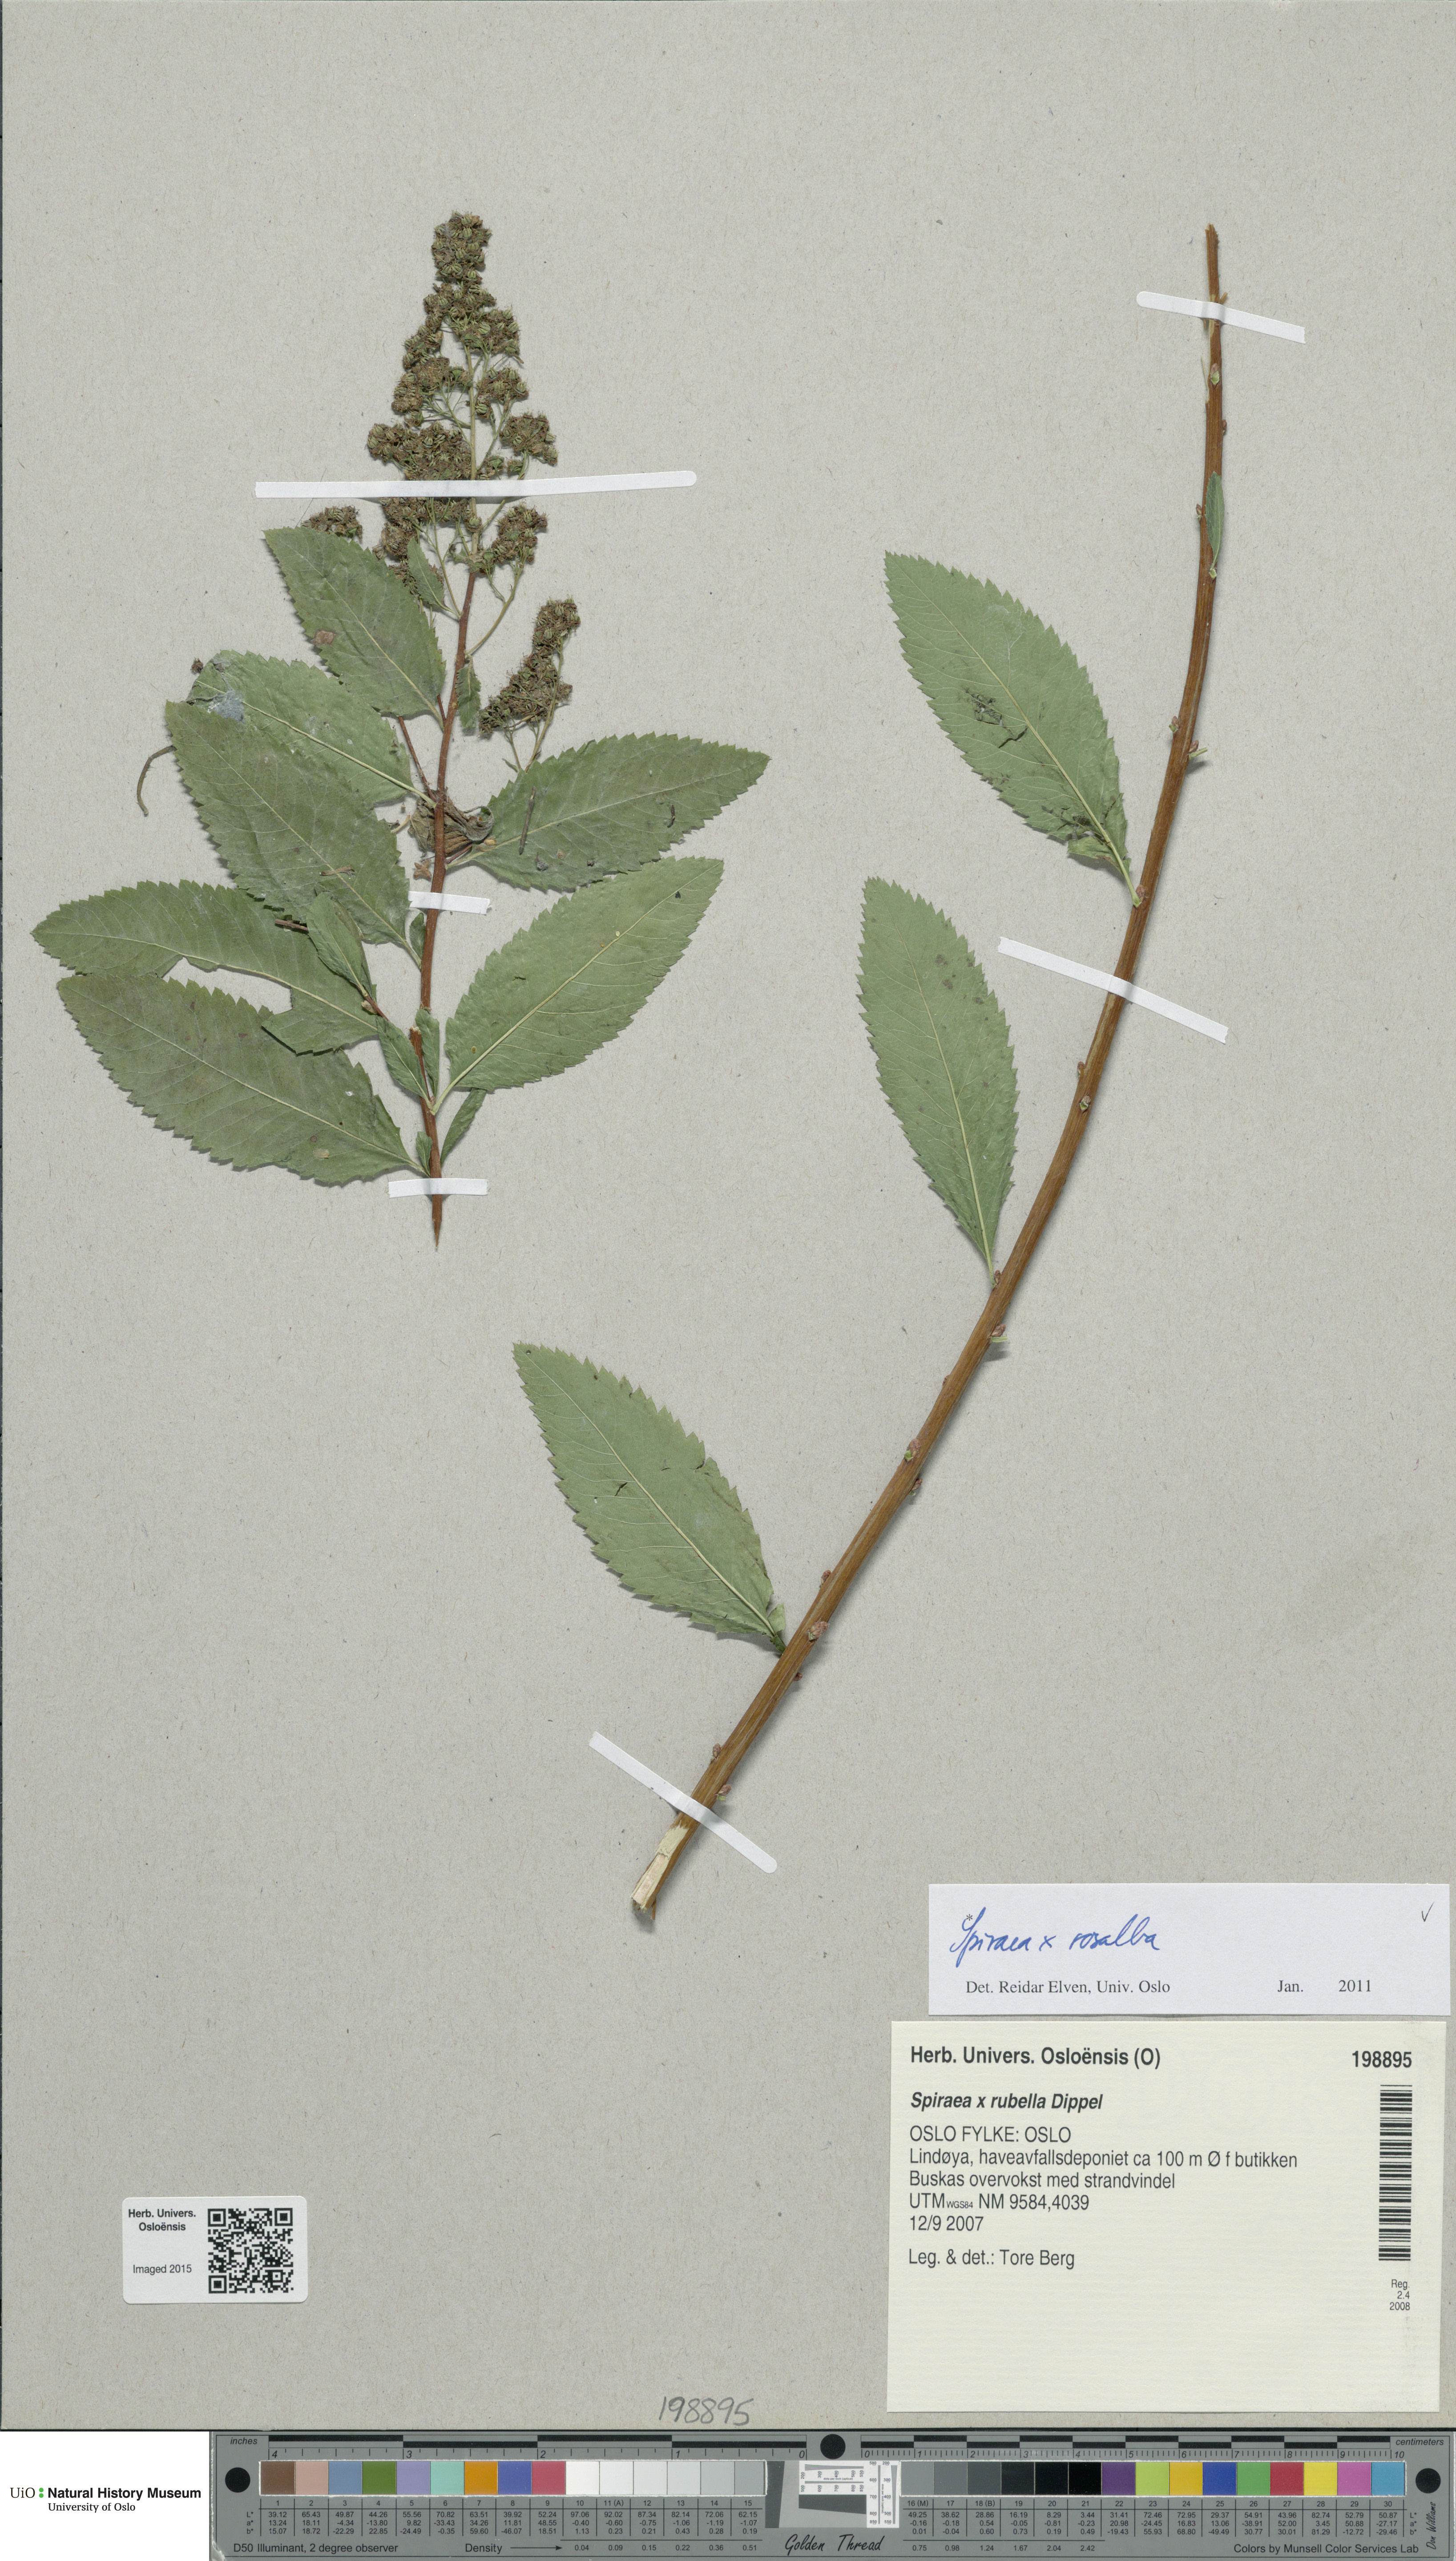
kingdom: Plantae
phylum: Tracheophyta
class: Magnoliopsida
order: Rosales
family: Rosaceae
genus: Spiraea
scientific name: Spiraea rosalba
